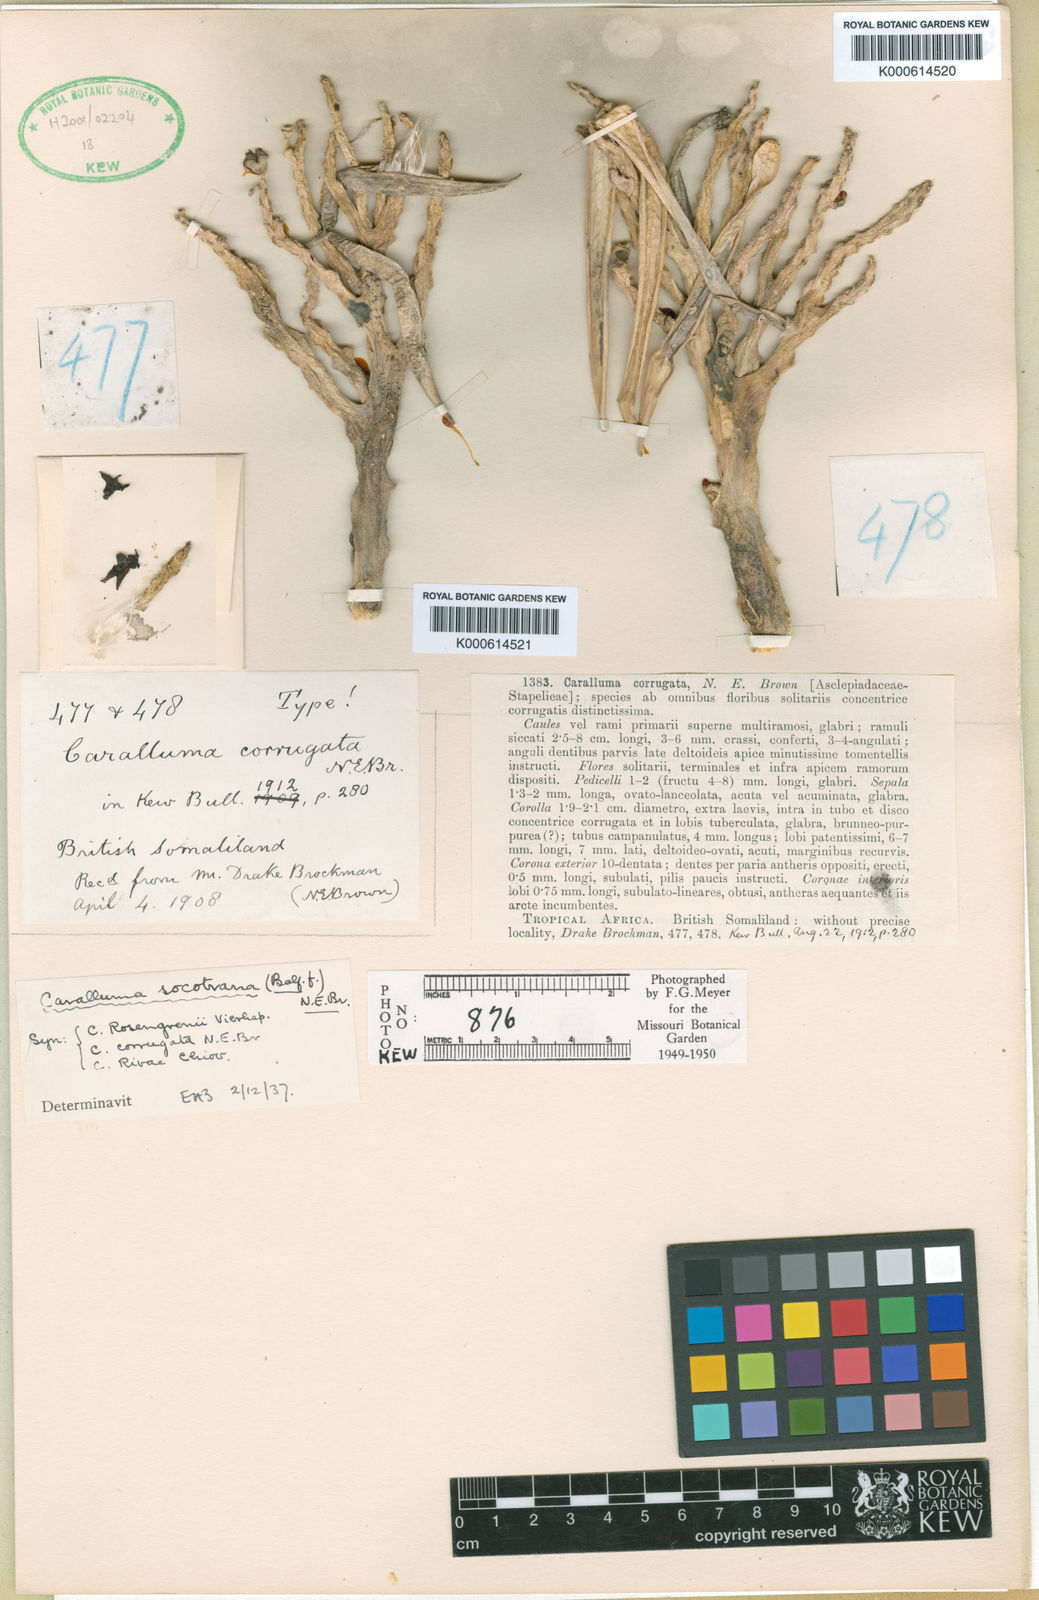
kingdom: Plantae
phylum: Tracheophyta
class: Magnoliopsida
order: Gentianales
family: Apocynaceae
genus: Ceropegia
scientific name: Ceropegia socotrana
